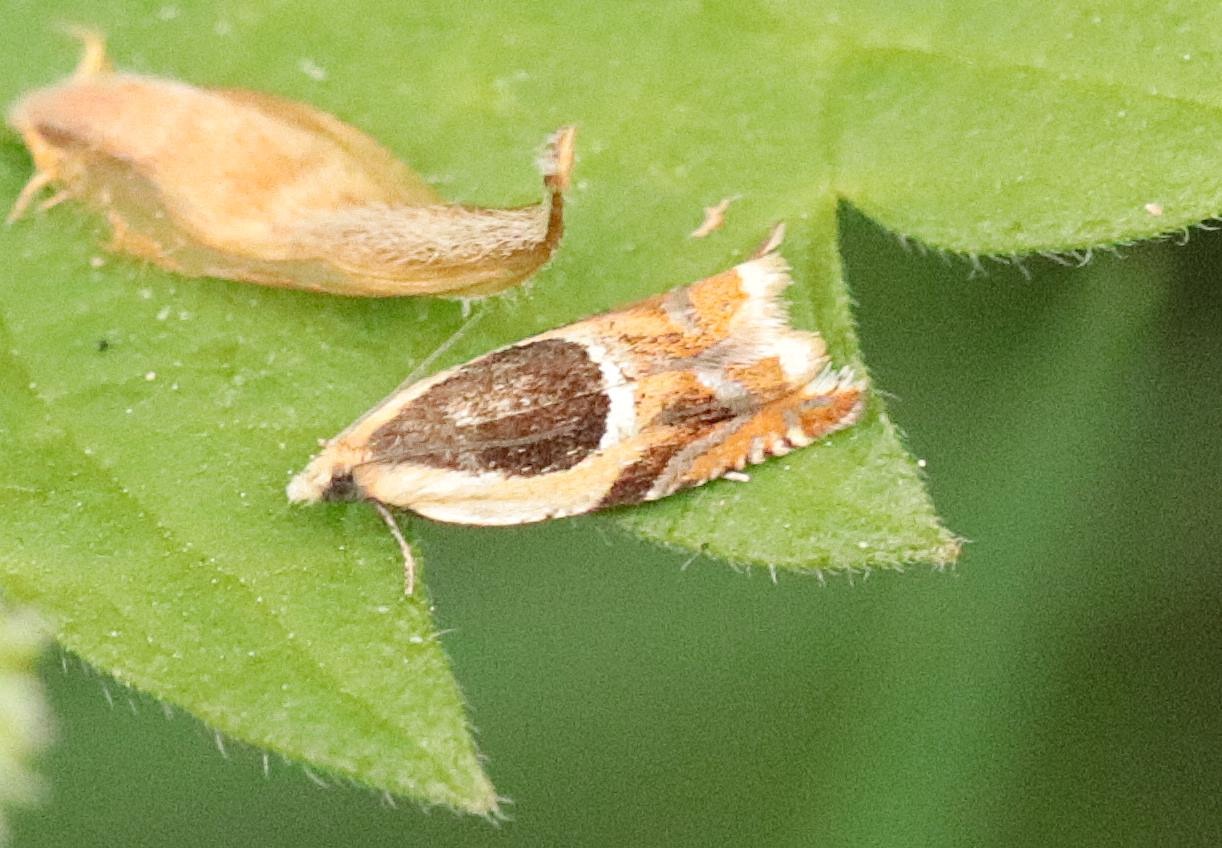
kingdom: Animalia
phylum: Arthropoda
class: Insecta
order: Lepidoptera
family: Tortricidae
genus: Ancylis
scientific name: Ancylis badiana
